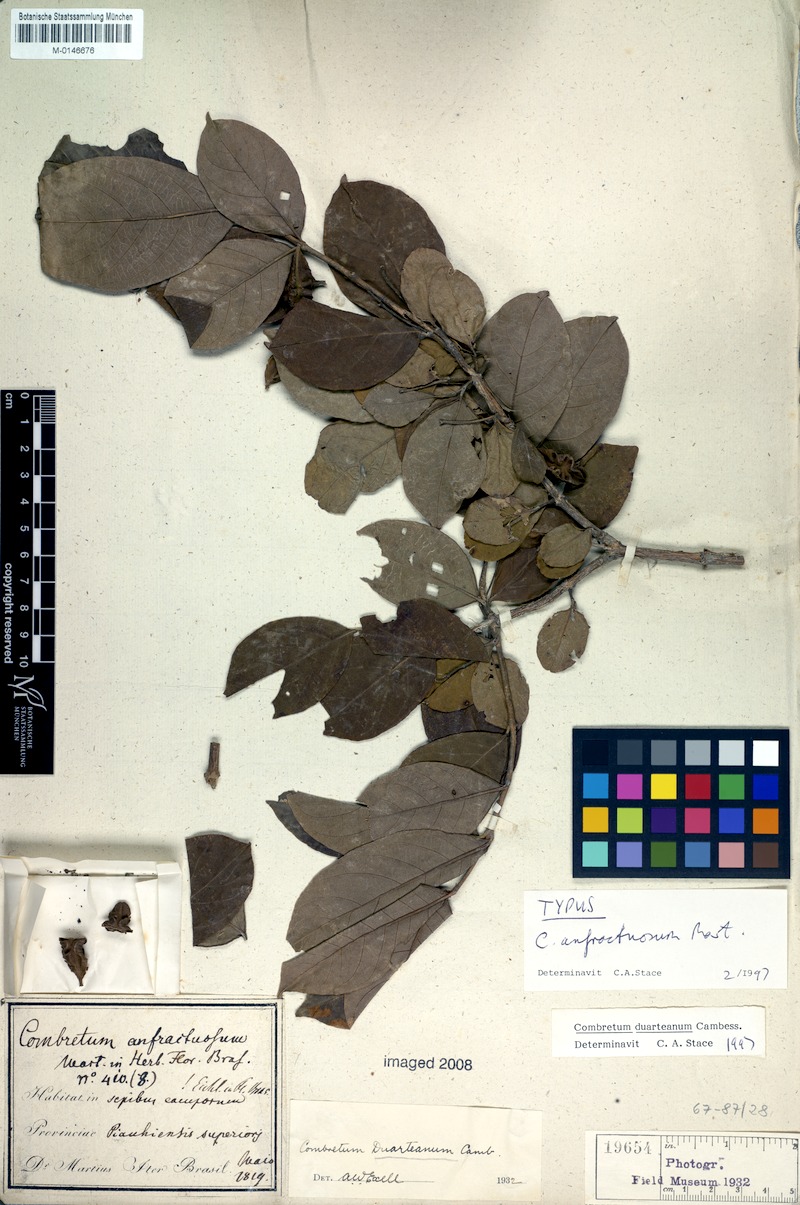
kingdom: Plantae
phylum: Tracheophyta
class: Magnoliopsida
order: Myrtales
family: Combretaceae
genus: Combretum
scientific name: Combretum duarteanum
